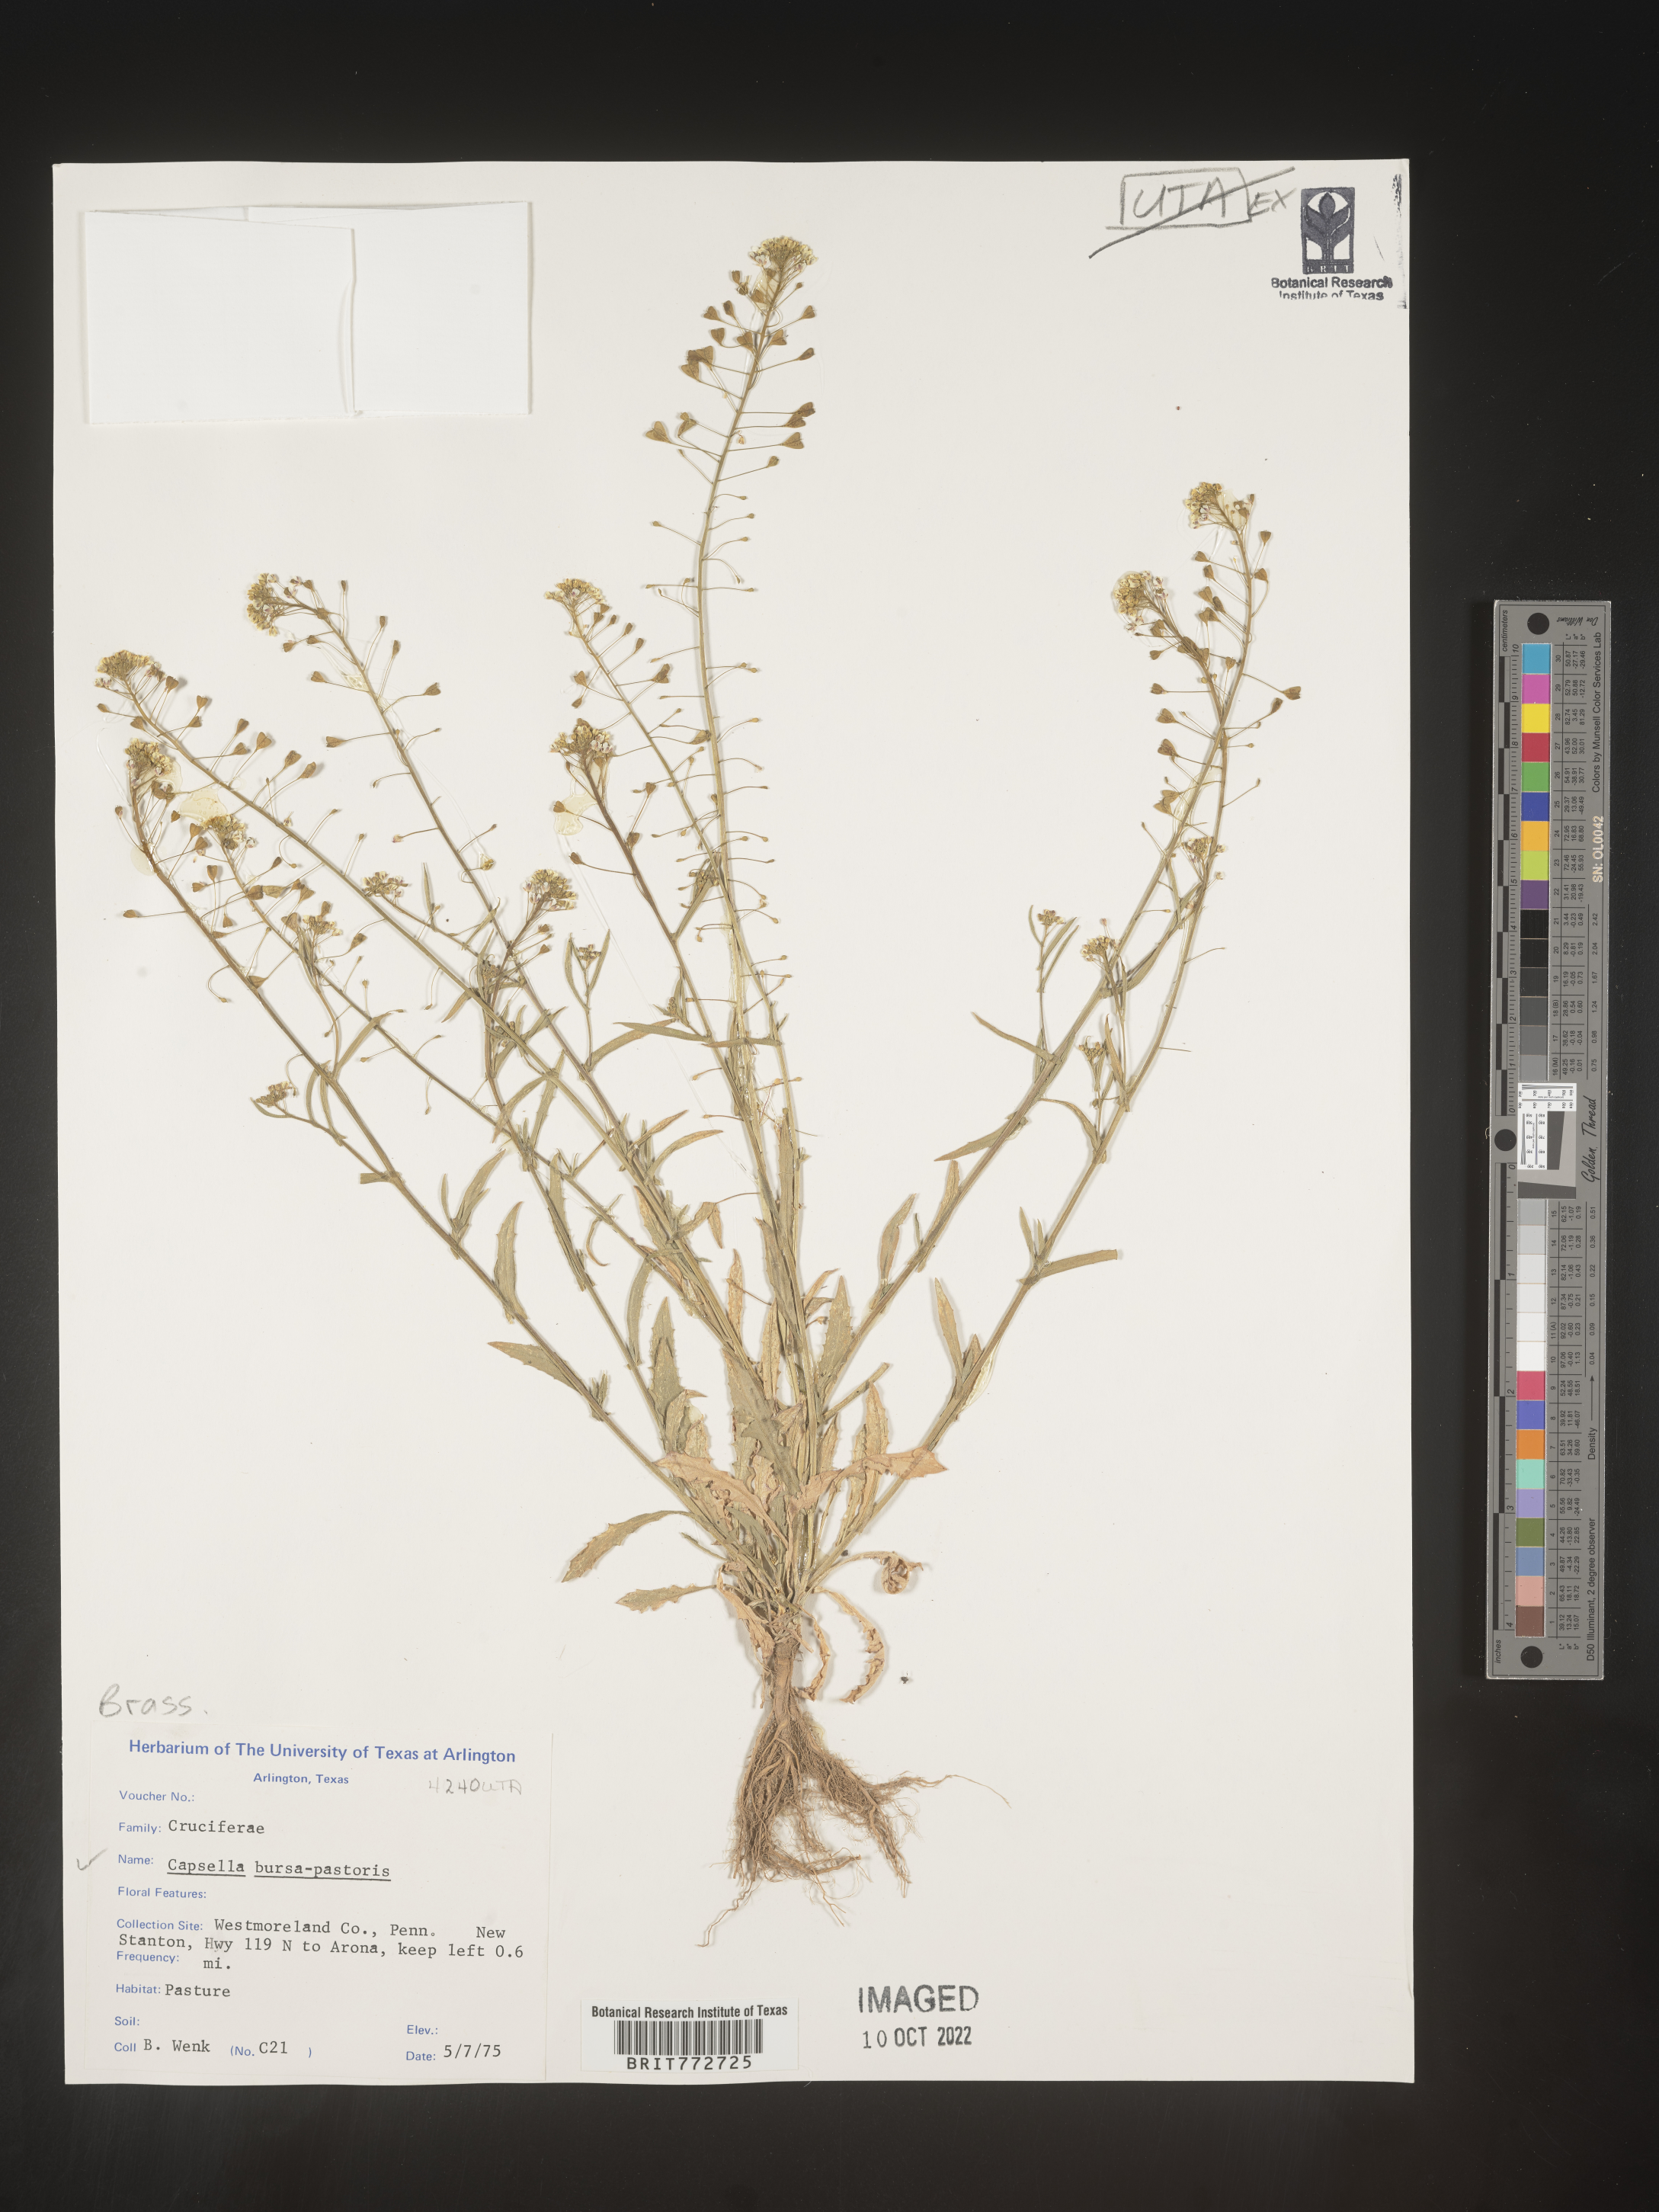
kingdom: Plantae
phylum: Tracheophyta
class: Magnoliopsida
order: Brassicales
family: Brassicaceae
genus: Capsella
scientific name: Capsella bursa-pastoris
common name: Shepherd's purse
